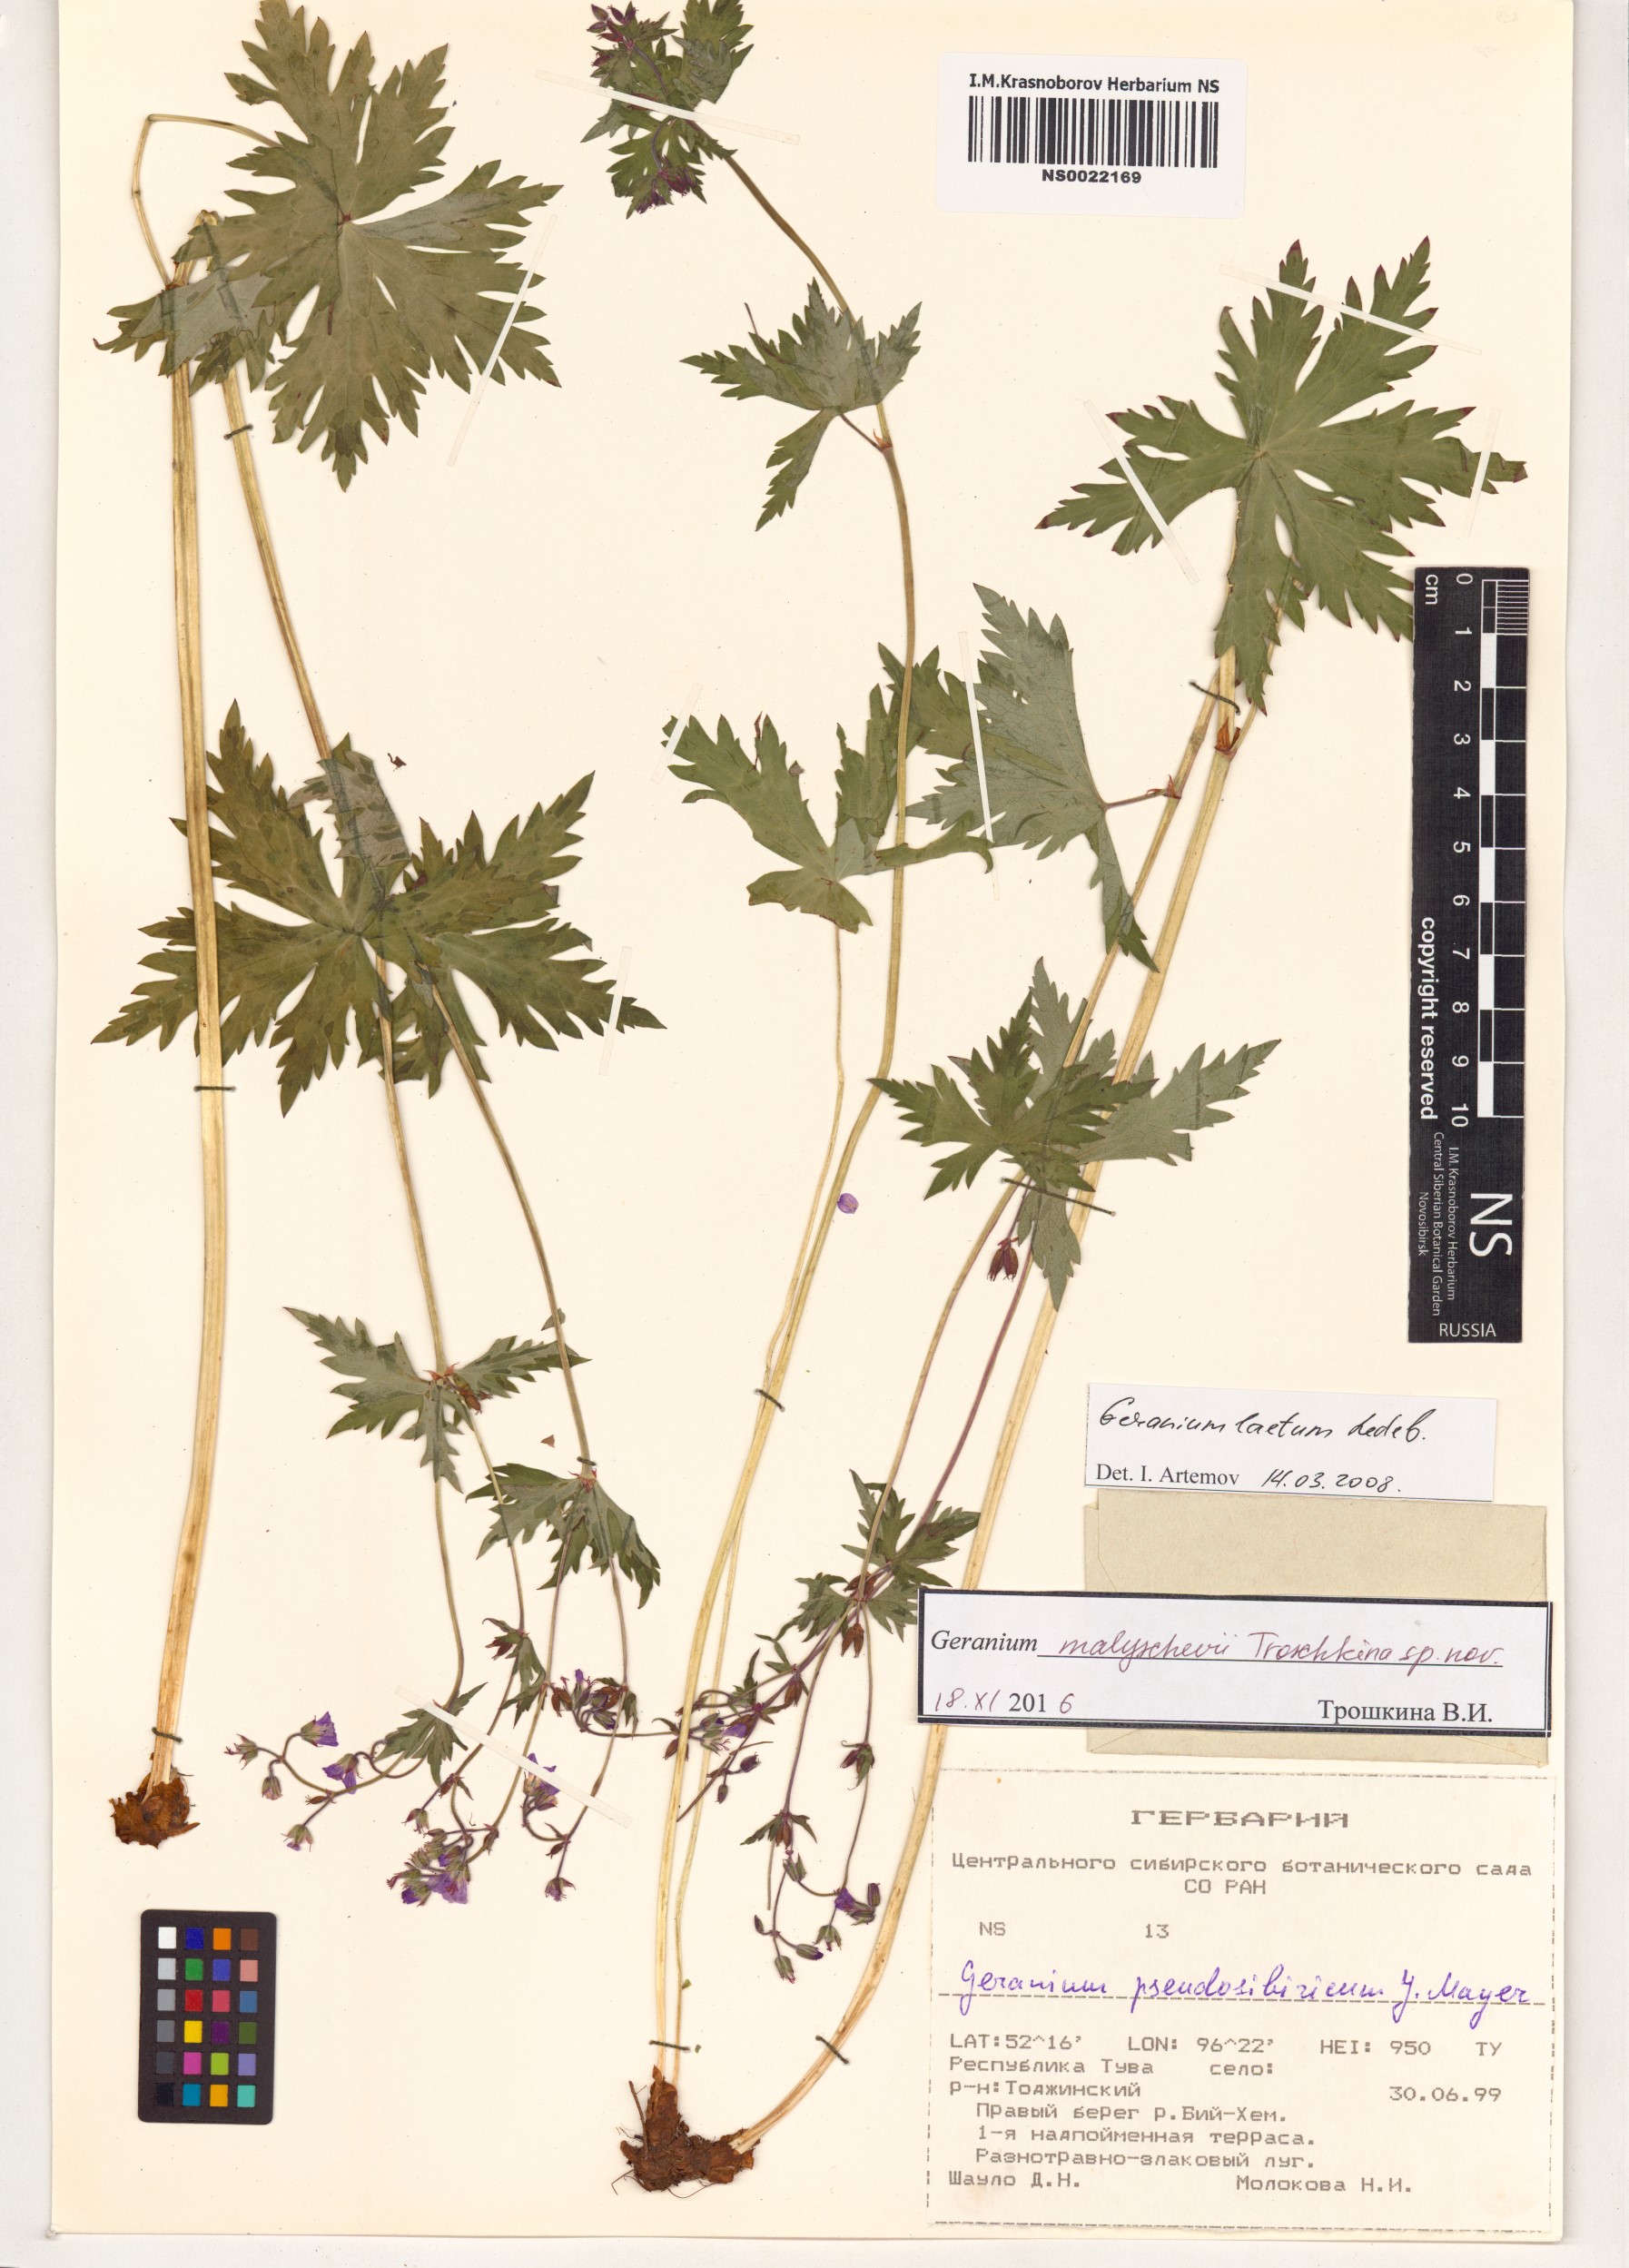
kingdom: Plantae
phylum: Tracheophyta
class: Magnoliopsida
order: Geraniales
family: Geraniaceae
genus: Geranium
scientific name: Geranium malyschevii
